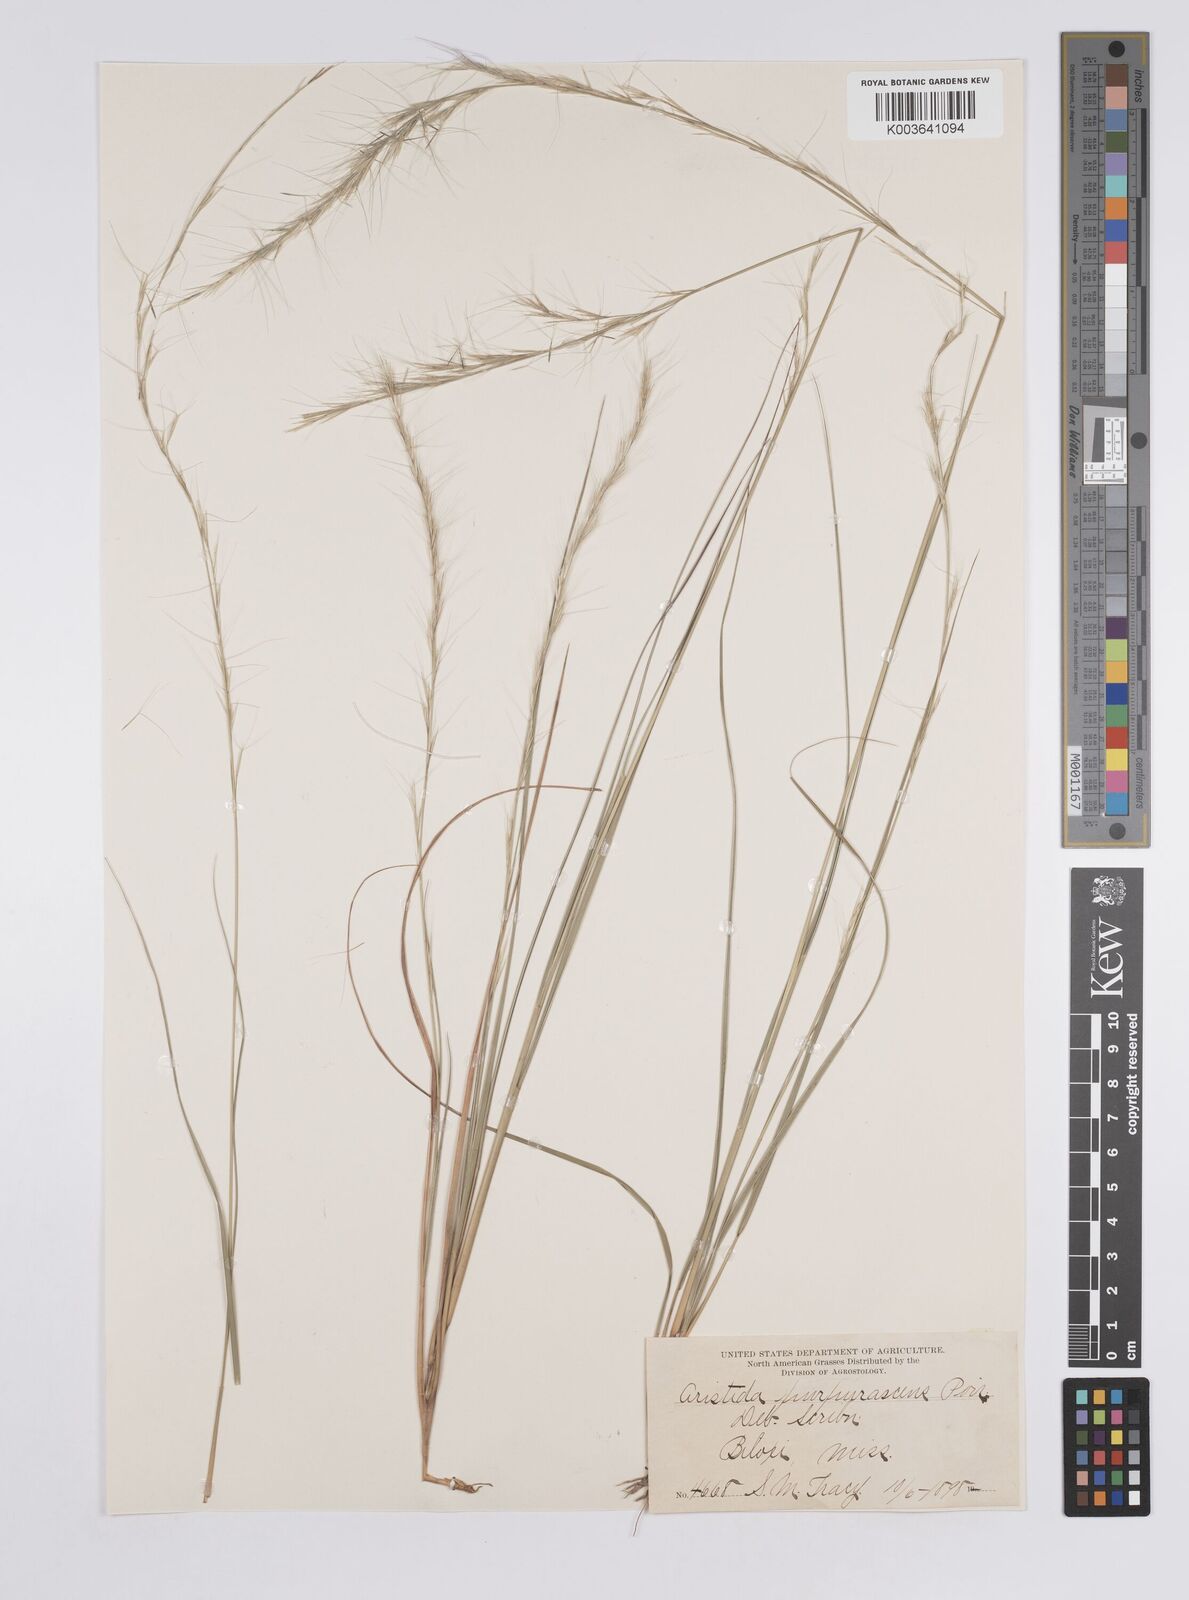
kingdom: Plantae
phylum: Tracheophyta
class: Liliopsida
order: Poales
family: Poaceae
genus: Aristida
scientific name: Aristida purpurascens
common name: Arrow-feather
